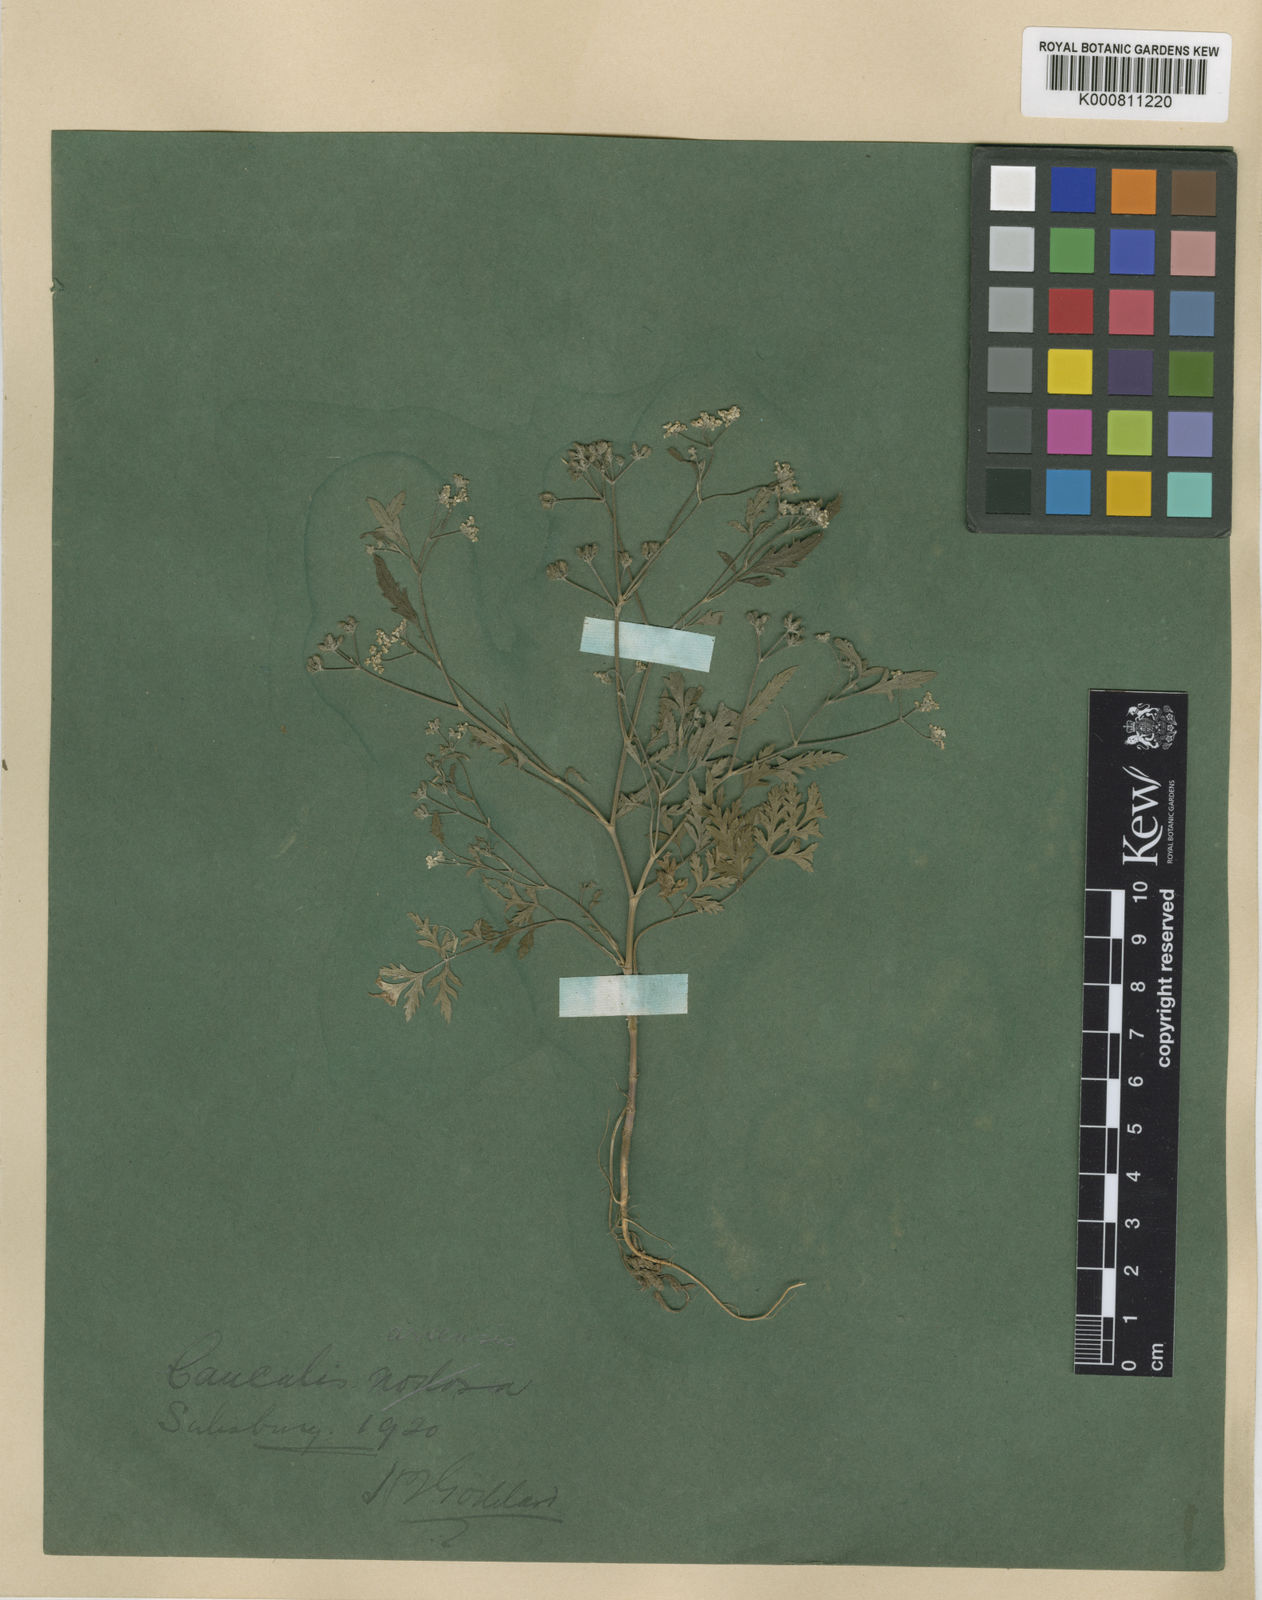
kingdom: Plantae
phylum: Tracheophyta
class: Magnoliopsida
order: Apiales
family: Apiaceae
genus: Torilis
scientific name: Torilis arvensis
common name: Spreading hedge-parsley
